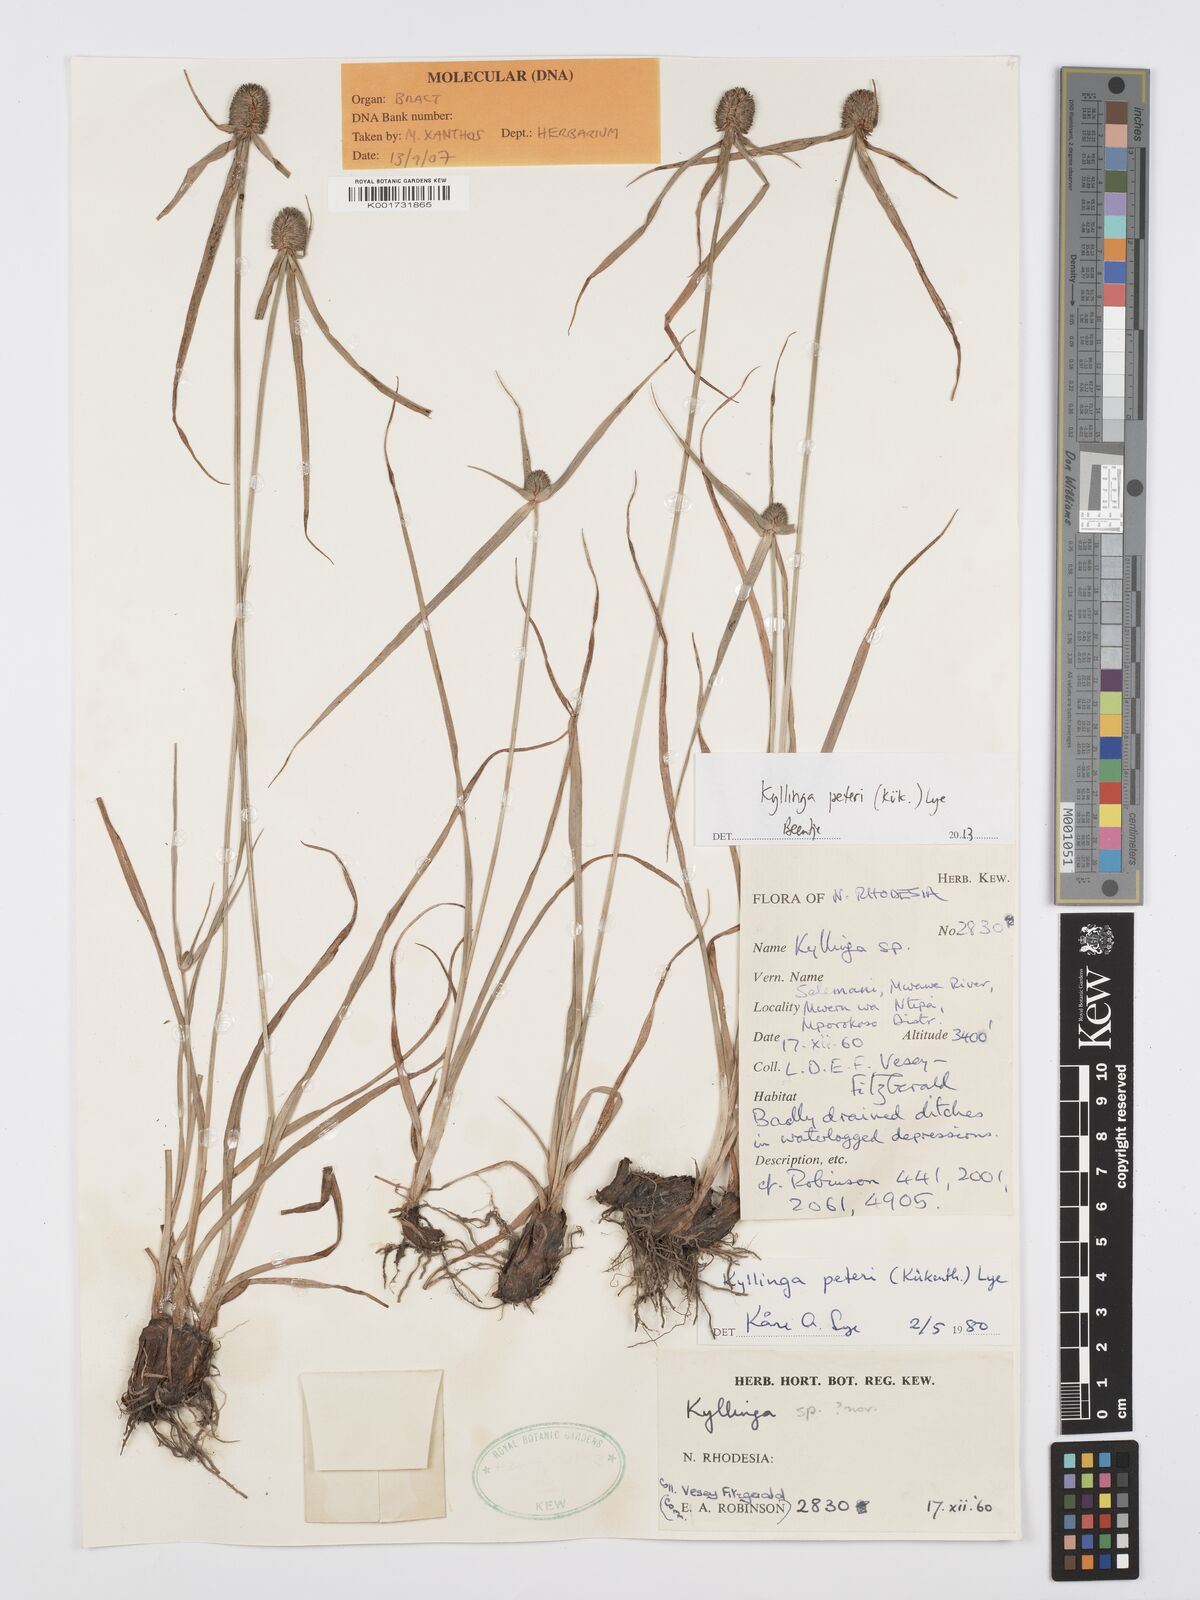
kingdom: Plantae
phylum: Tracheophyta
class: Liliopsida
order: Poales
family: Cyperaceae
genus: Cyperus
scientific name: Cyperus peteri
